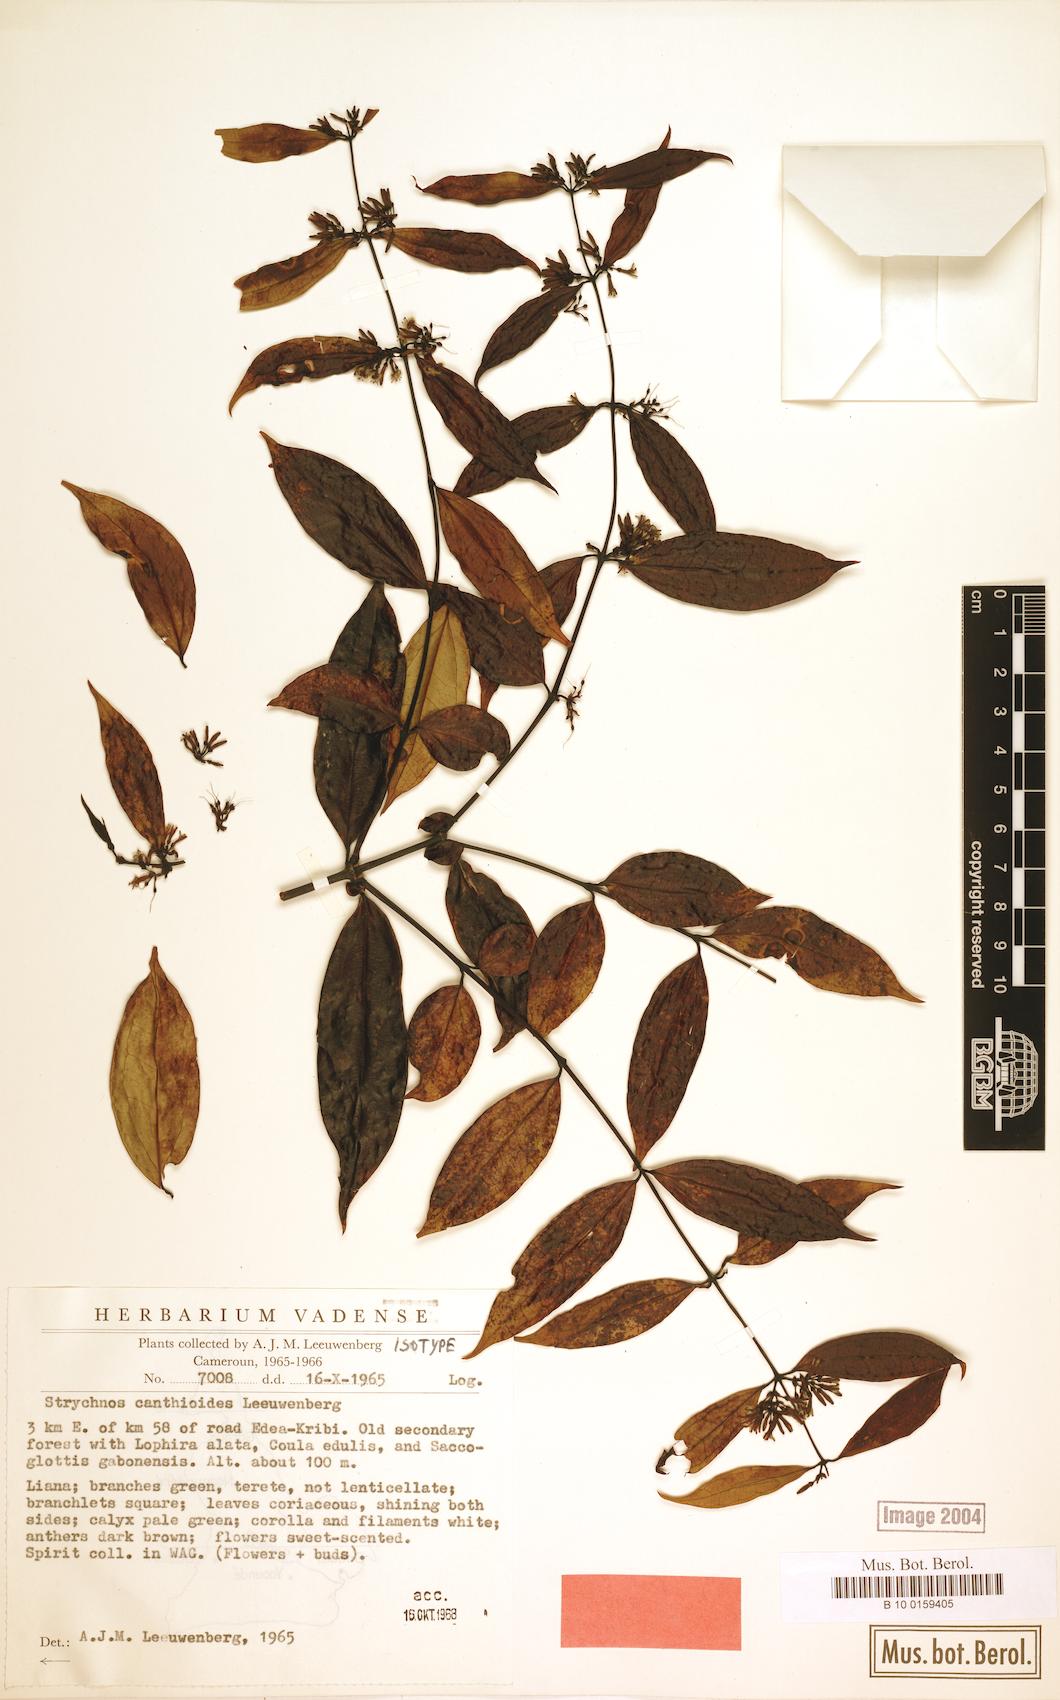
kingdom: Plantae
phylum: Tracheophyta
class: Magnoliopsida
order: Gentianales
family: Loganiaceae
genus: Strychnos
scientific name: Strychnos canthioides
